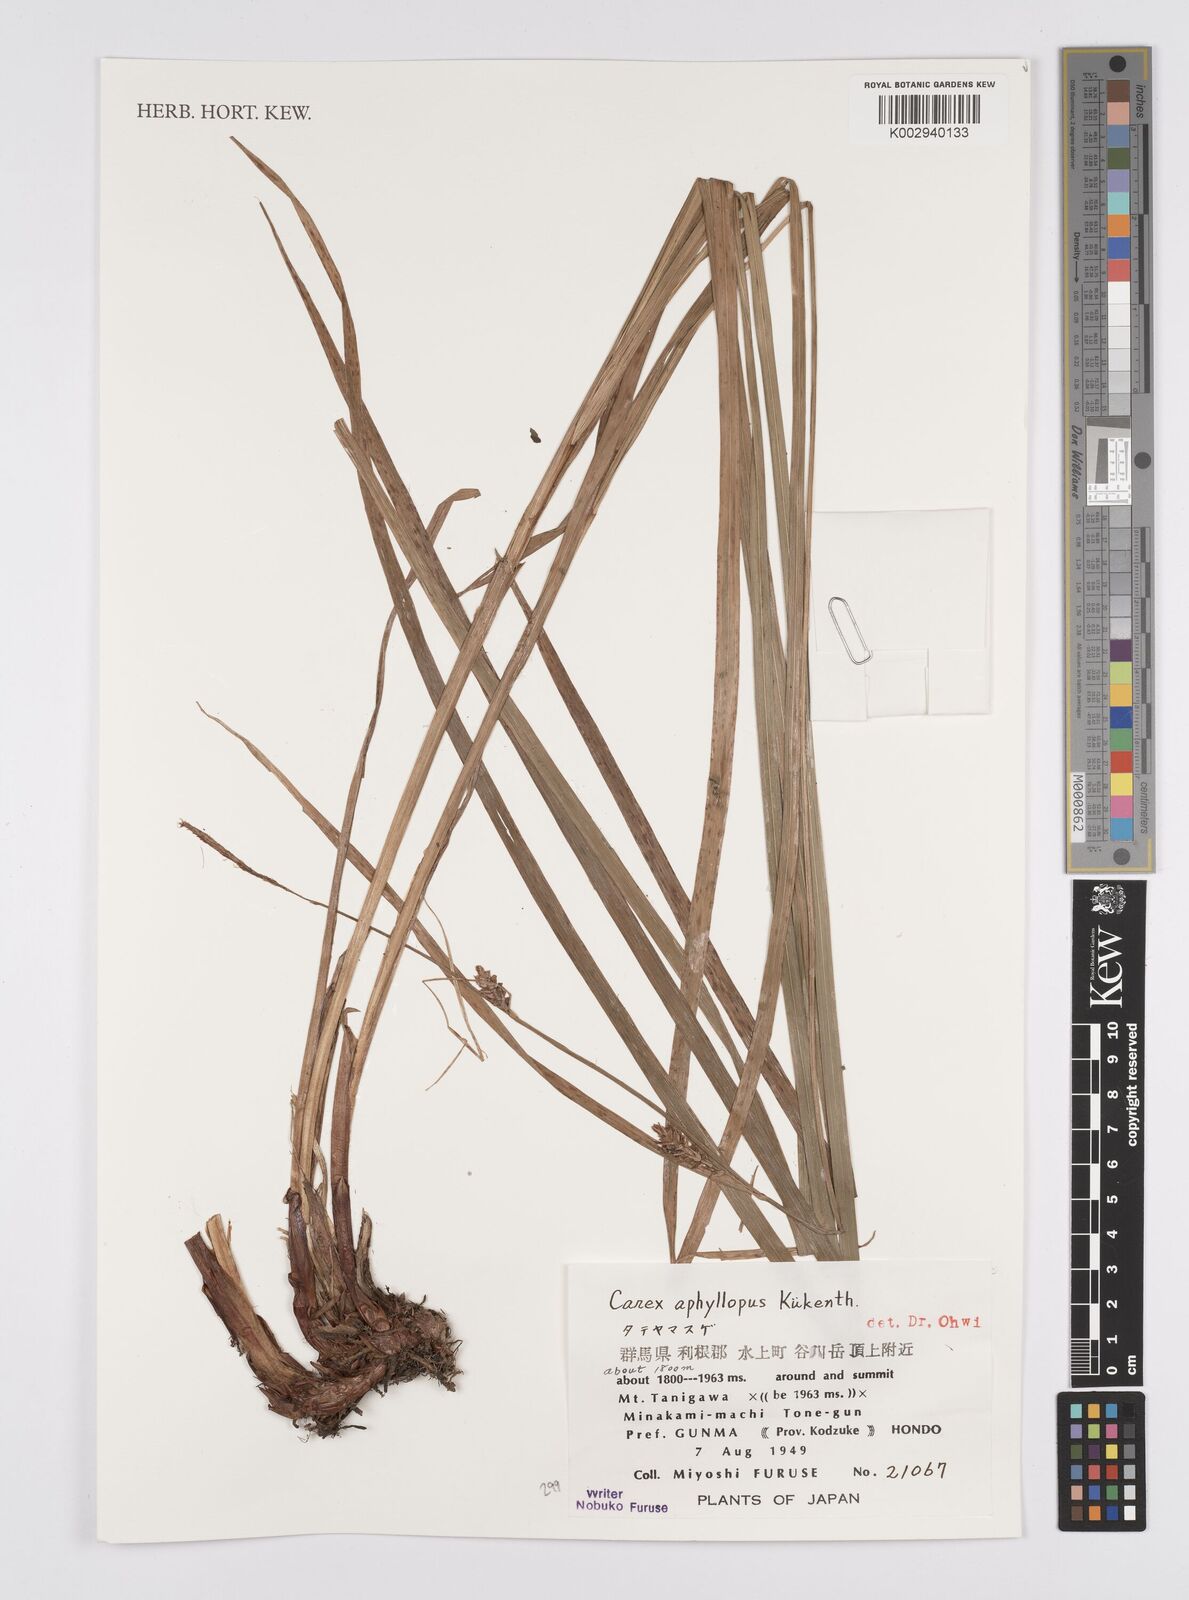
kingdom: Plantae
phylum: Tracheophyta
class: Liliopsida
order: Poales
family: Cyperaceae
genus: Carex
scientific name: Carex aphyllopus
